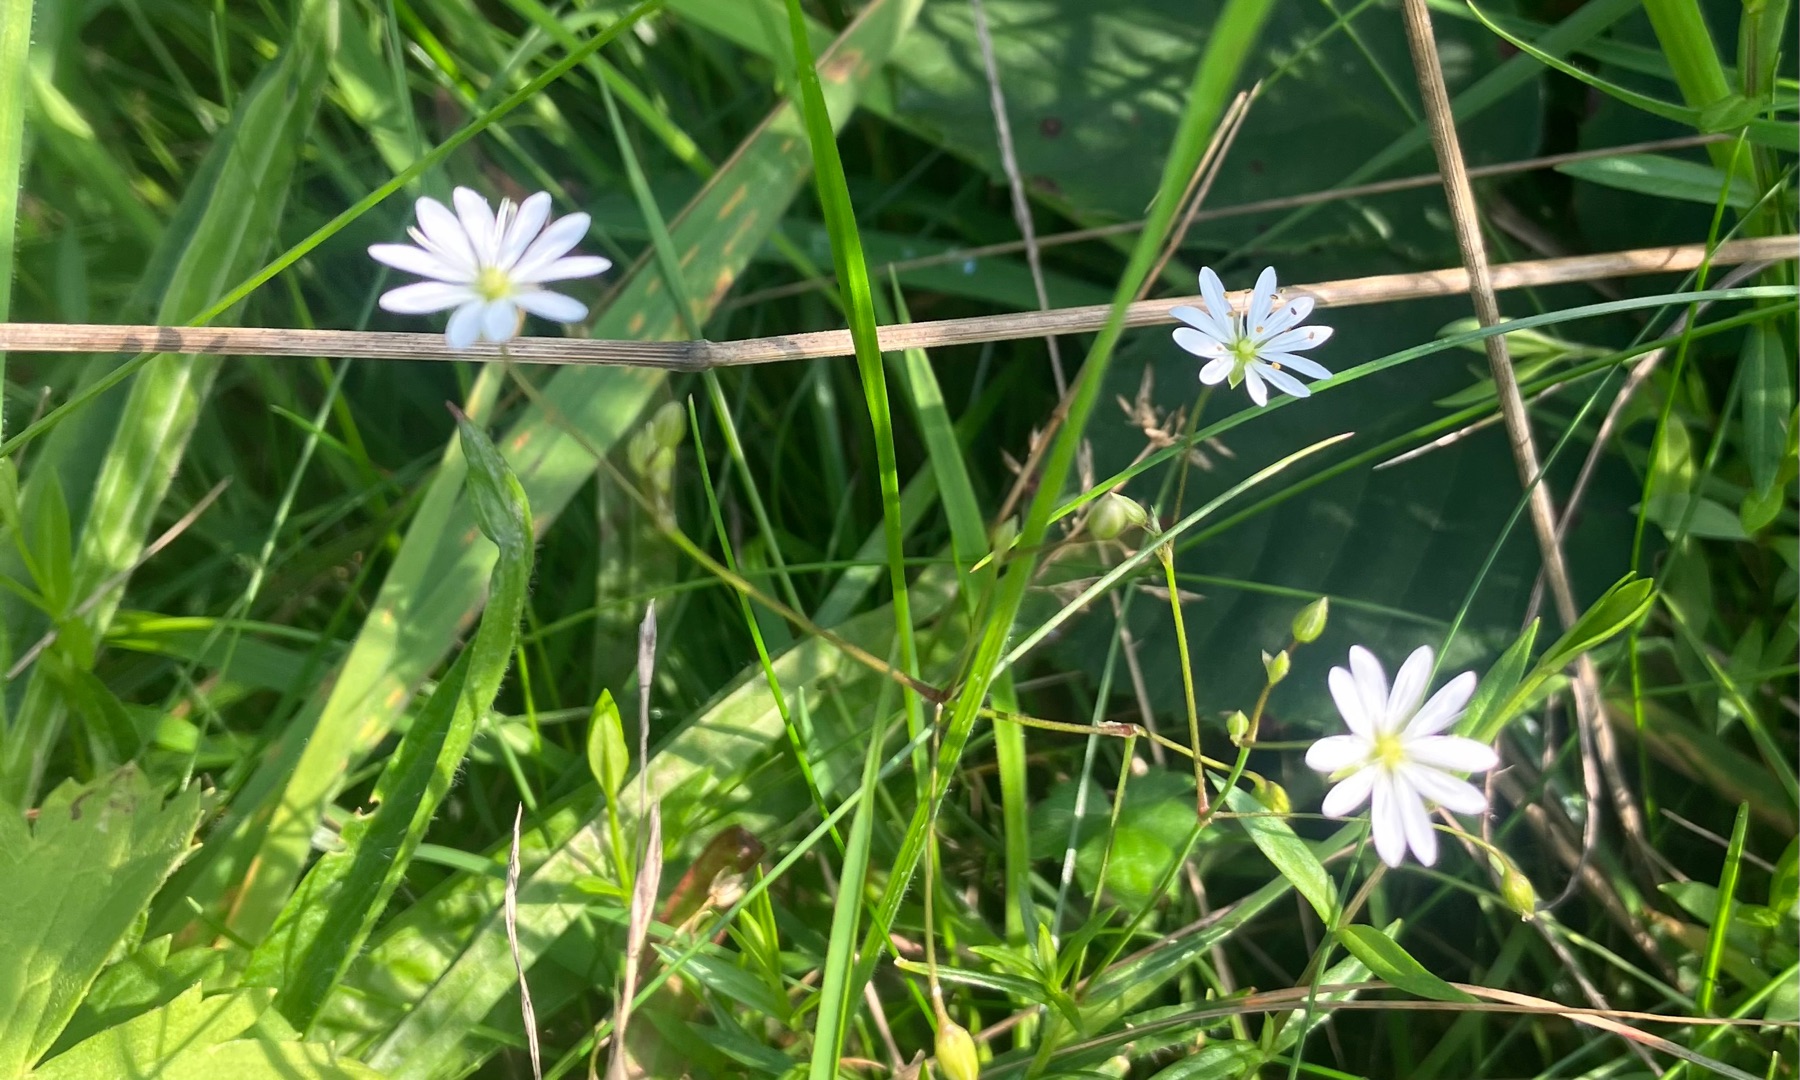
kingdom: Plantae
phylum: Tracheophyta
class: Magnoliopsida
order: Caryophyllales
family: Caryophyllaceae
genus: Stellaria
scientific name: Stellaria graminea
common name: Græsbladet fladstjerne
